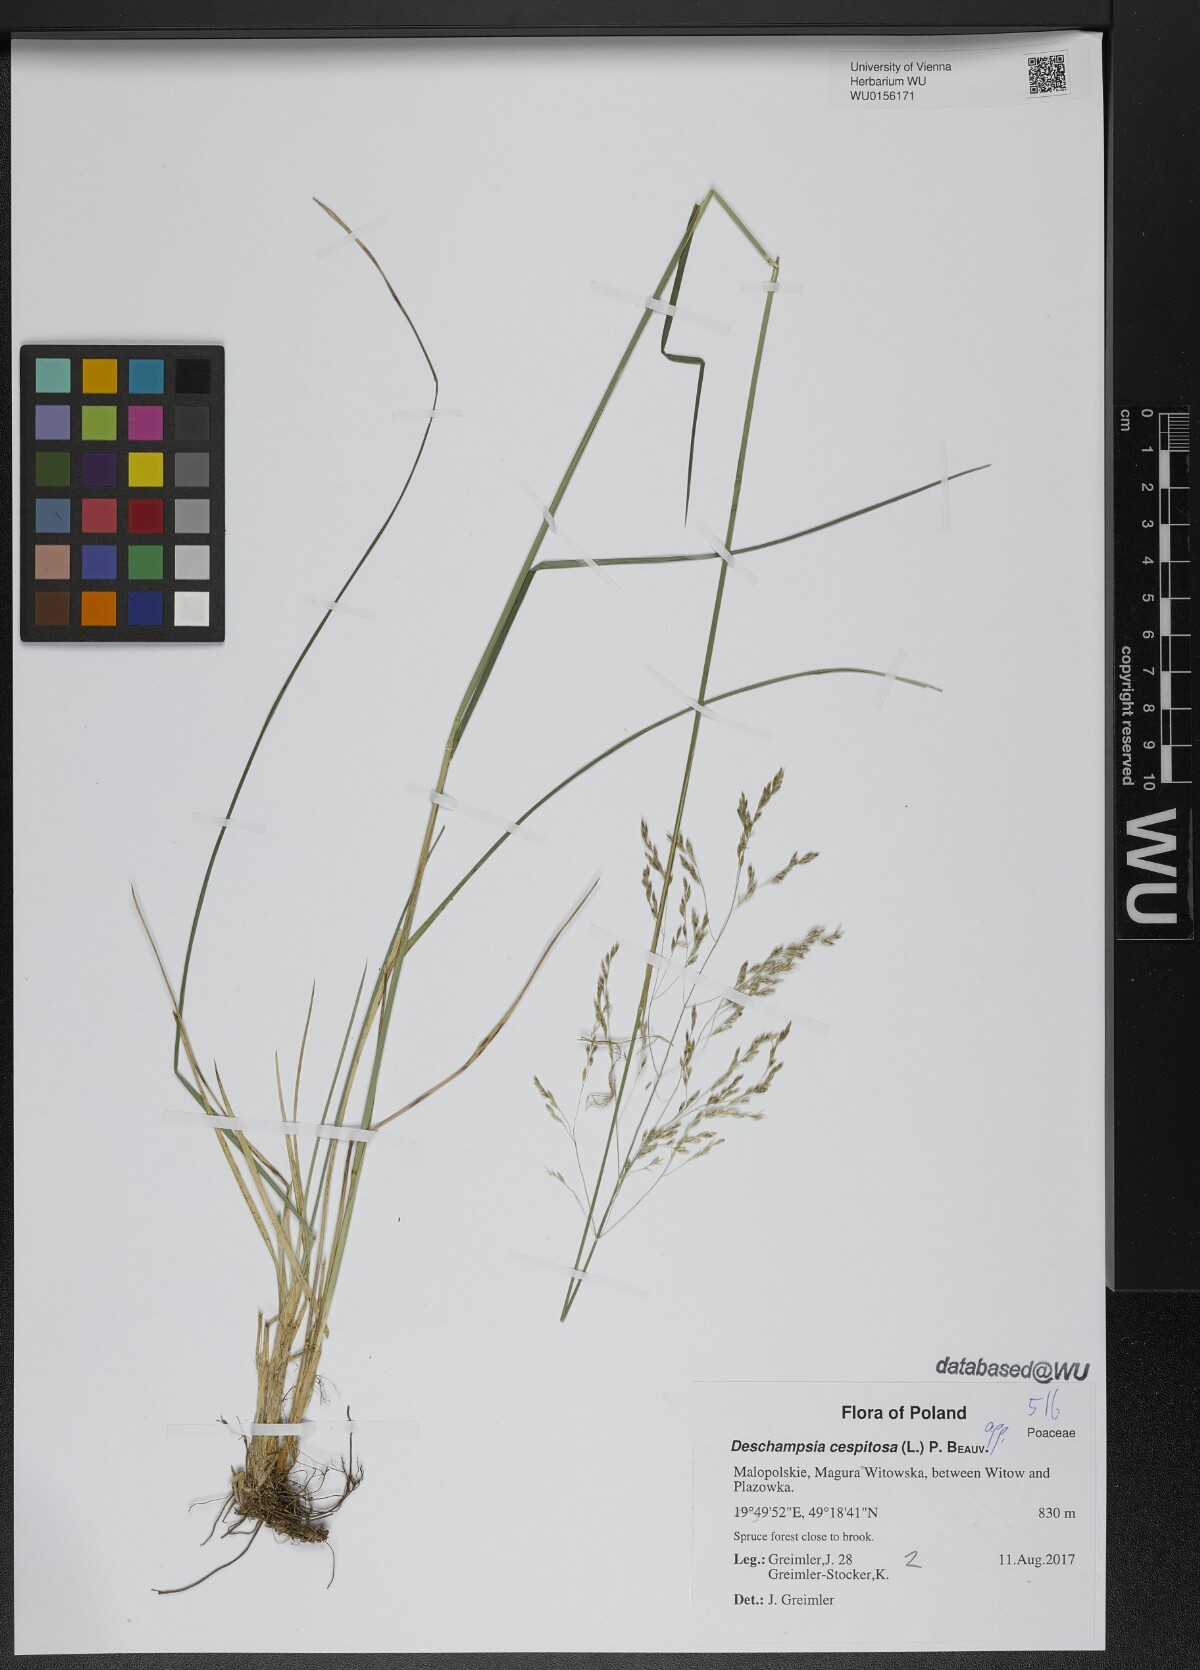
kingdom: Plantae
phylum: Tracheophyta
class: Liliopsida
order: Poales
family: Poaceae
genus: Deschampsia
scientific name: Deschampsia cespitosa
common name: Tufted hair-grass
